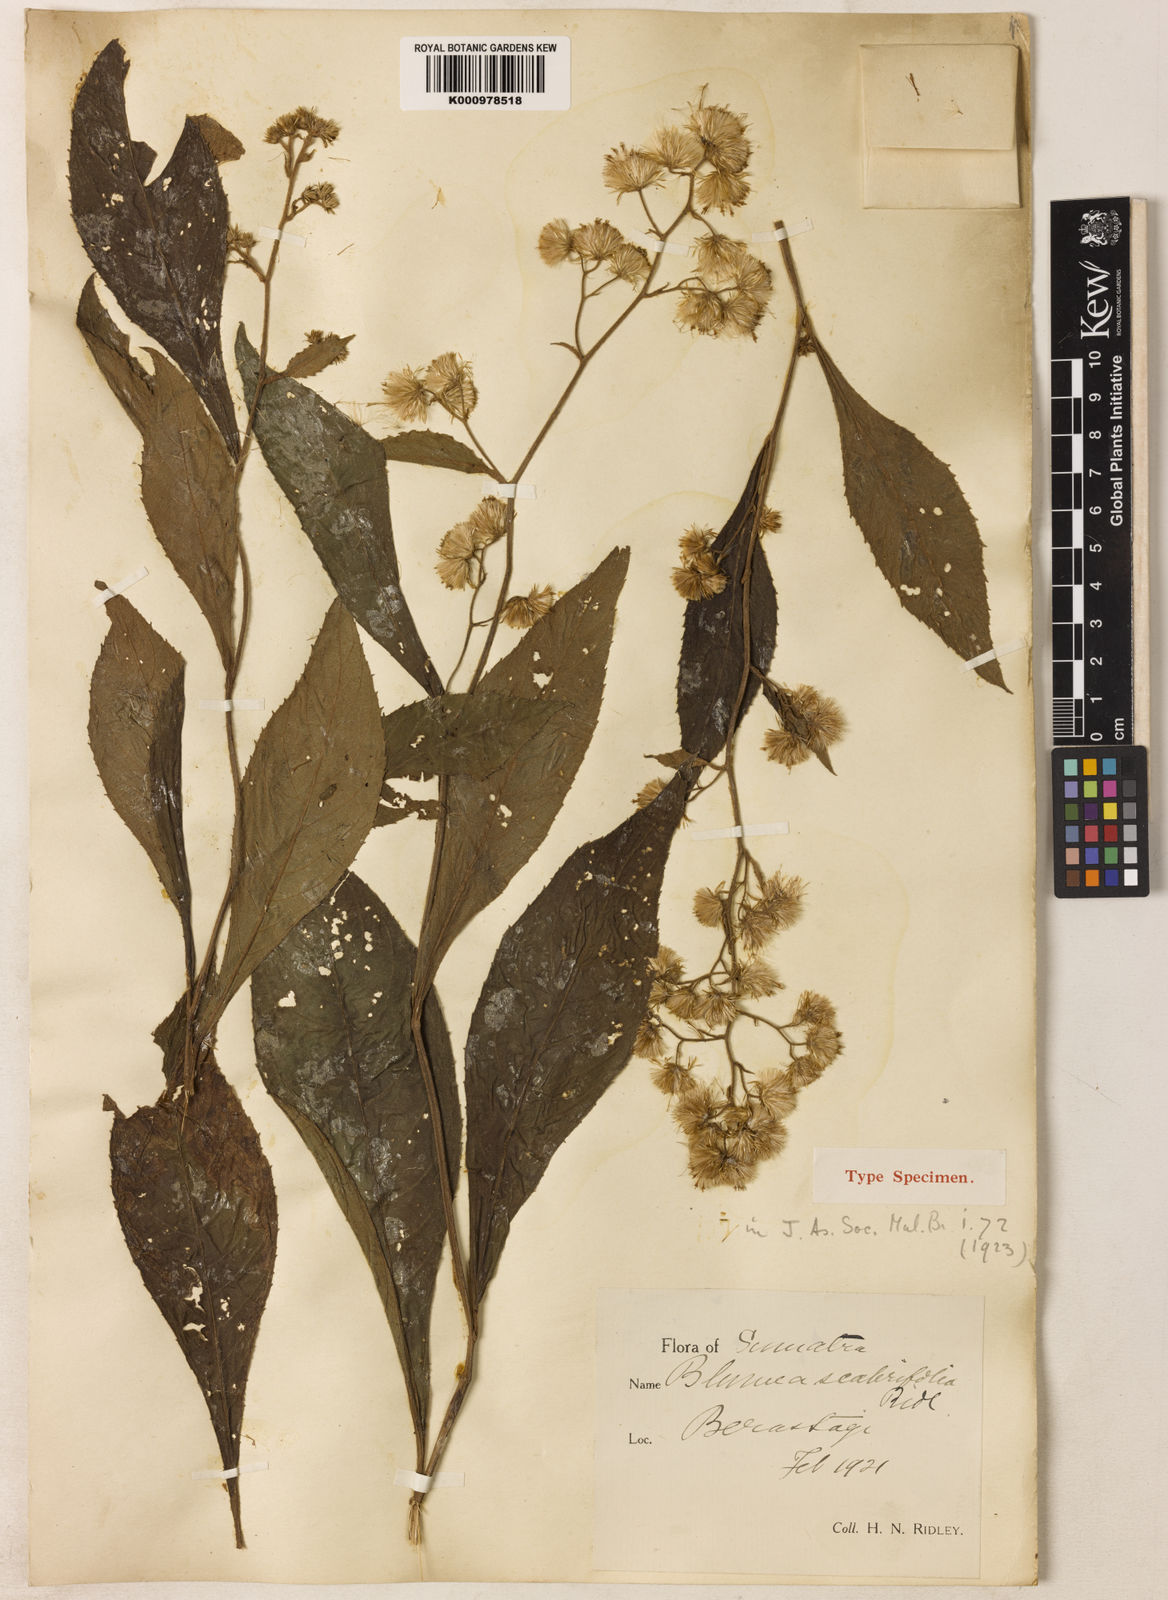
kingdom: Plantae
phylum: Tracheophyta
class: Magnoliopsida
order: Asterales
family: Asteraceae
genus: Blumea
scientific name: Blumea scabrifolia
